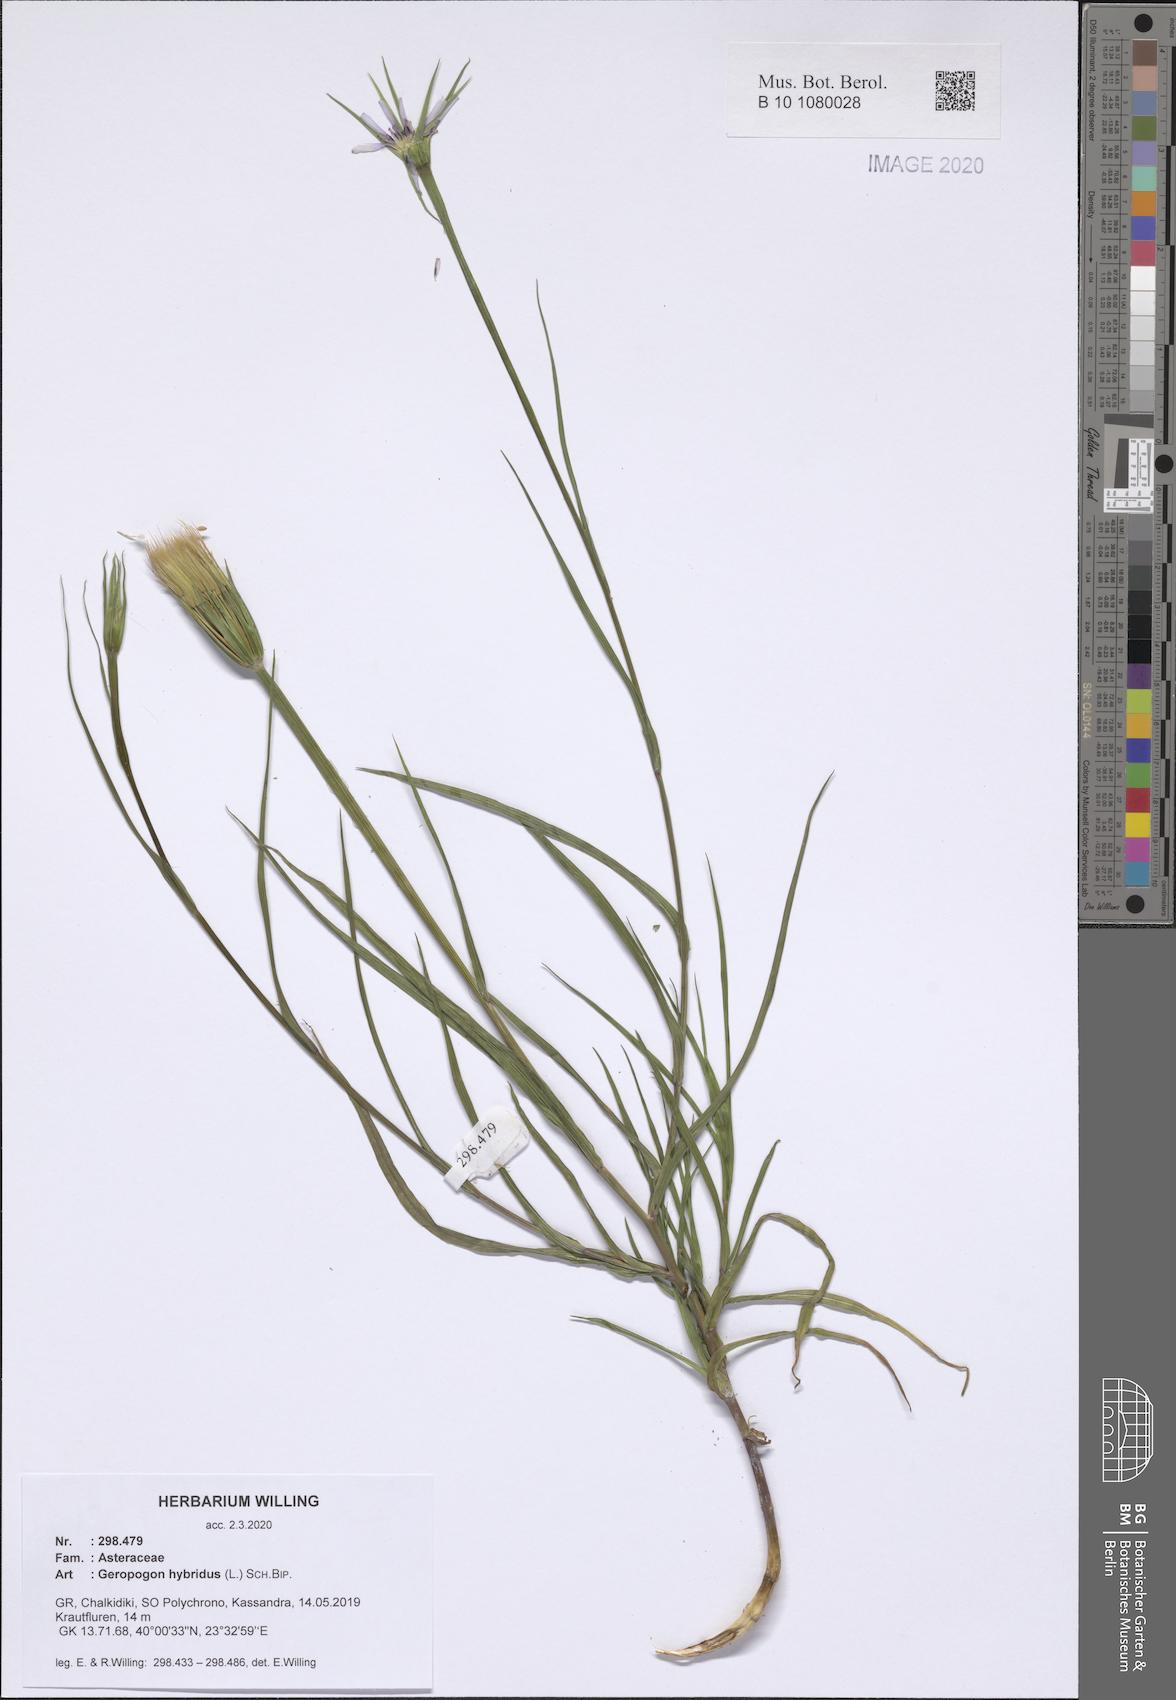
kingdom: Plantae
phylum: Tracheophyta
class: Magnoliopsida
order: Asterales
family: Asteraceae
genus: Geropogon
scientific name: Geropogon hybridus
